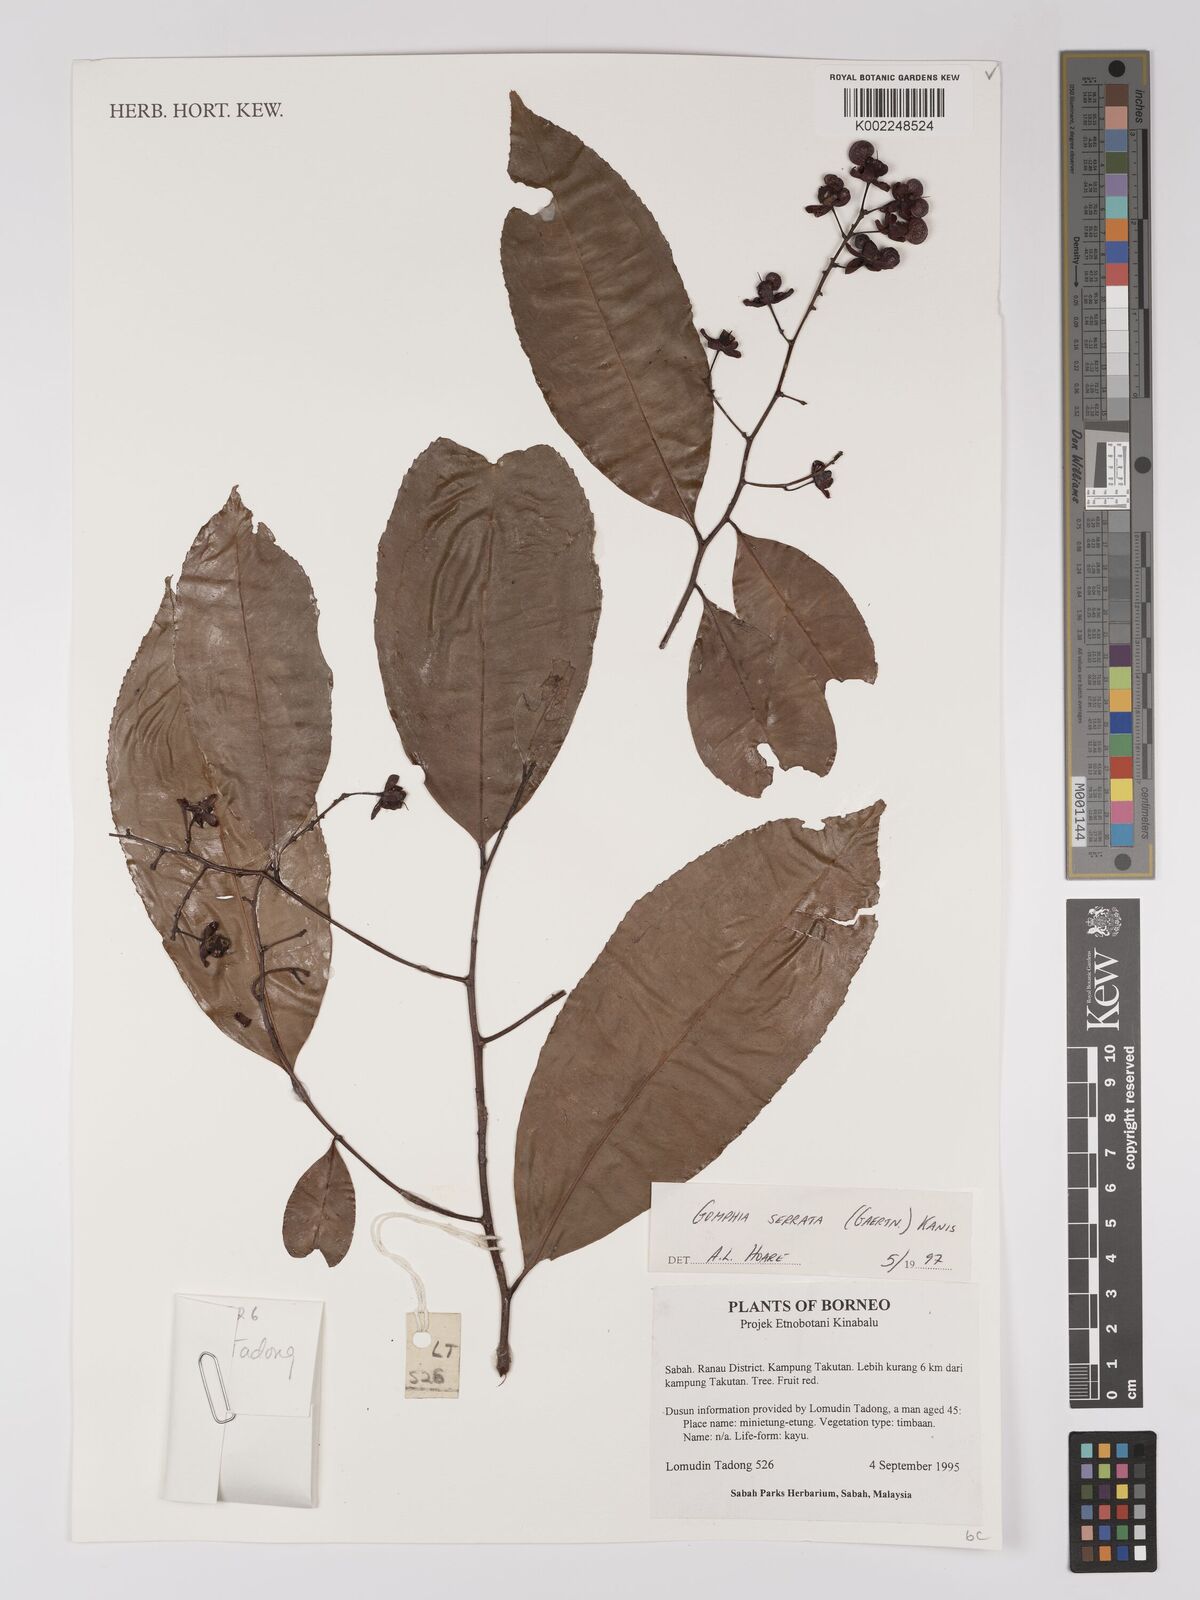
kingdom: Plantae
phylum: Tracheophyta
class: Magnoliopsida
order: Malpighiales
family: Ochnaceae
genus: Gomphia
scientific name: Gomphia serrata
